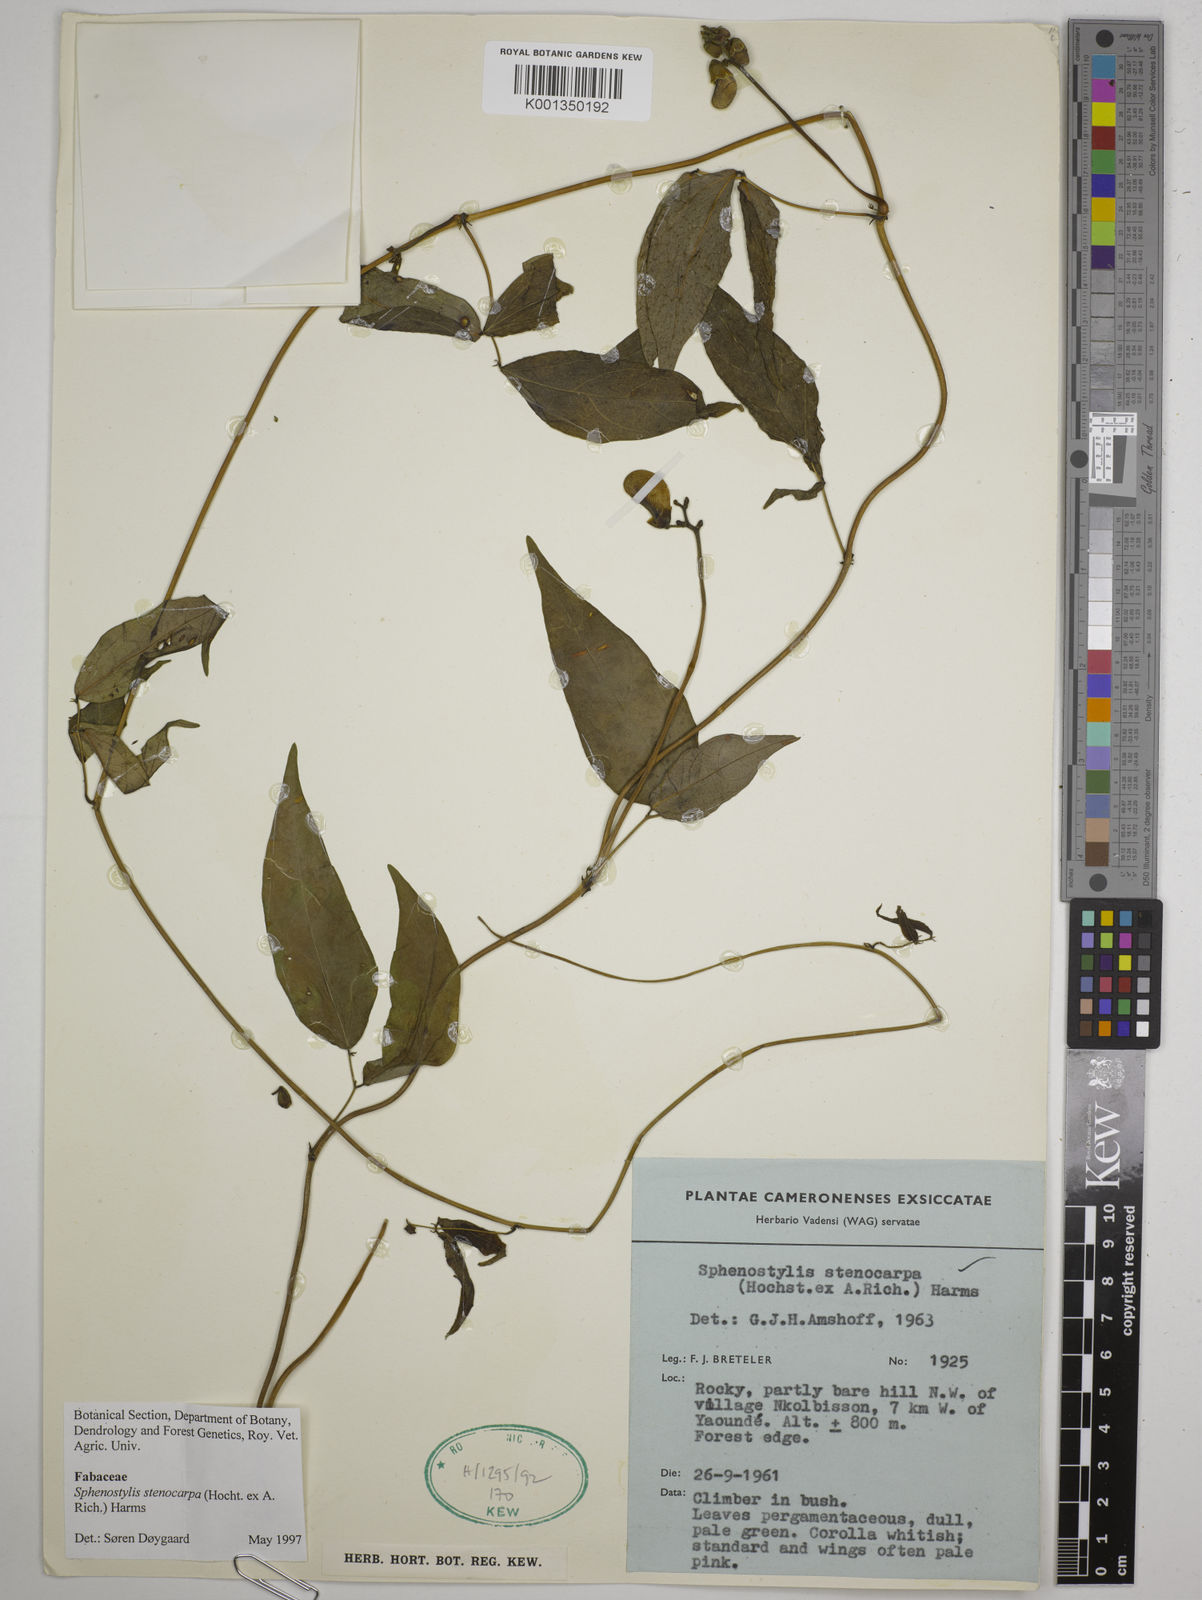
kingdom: Plantae
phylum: Tracheophyta
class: Magnoliopsida
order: Fabales
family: Fabaceae
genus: Sphenostylis
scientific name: Sphenostylis stenocarpa
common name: Yam-pea
